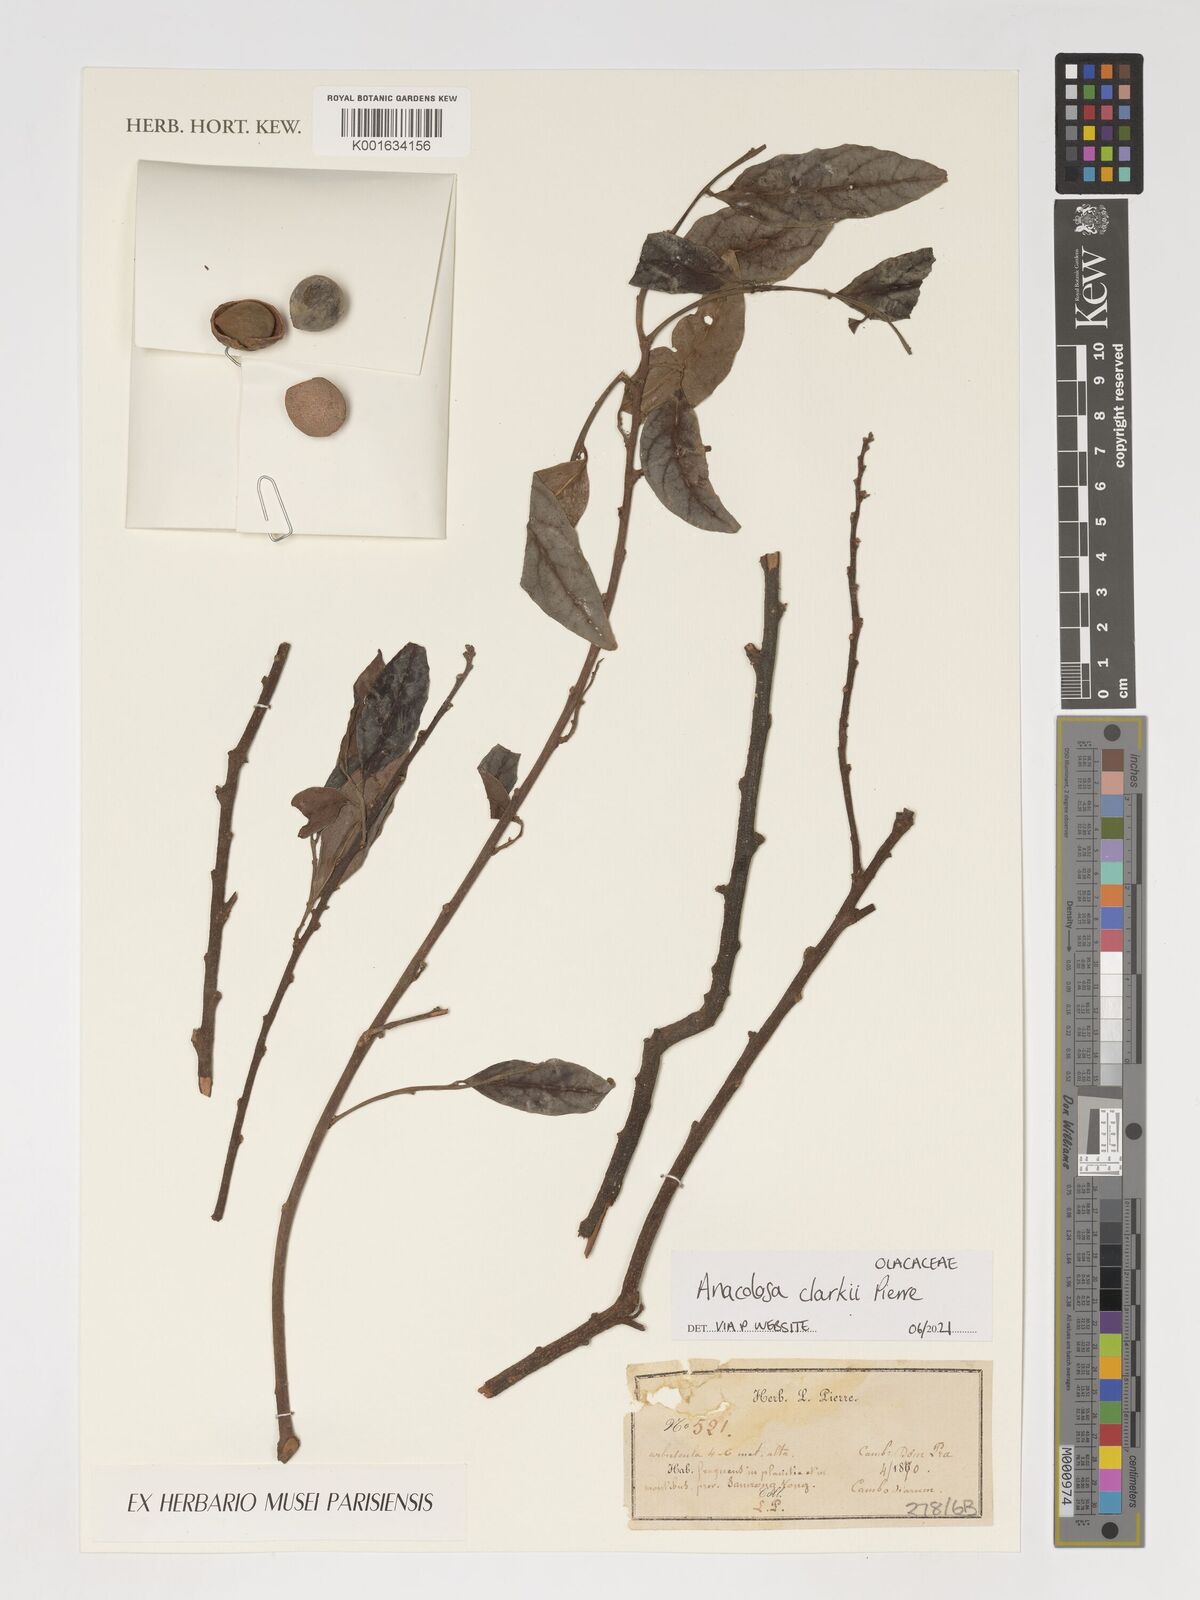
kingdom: Plantae
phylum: Tracheophyta
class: Magnoliopsida
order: Santalales
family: Aptandraceae
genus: Anacolosa
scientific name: Anacolosa clarkii
